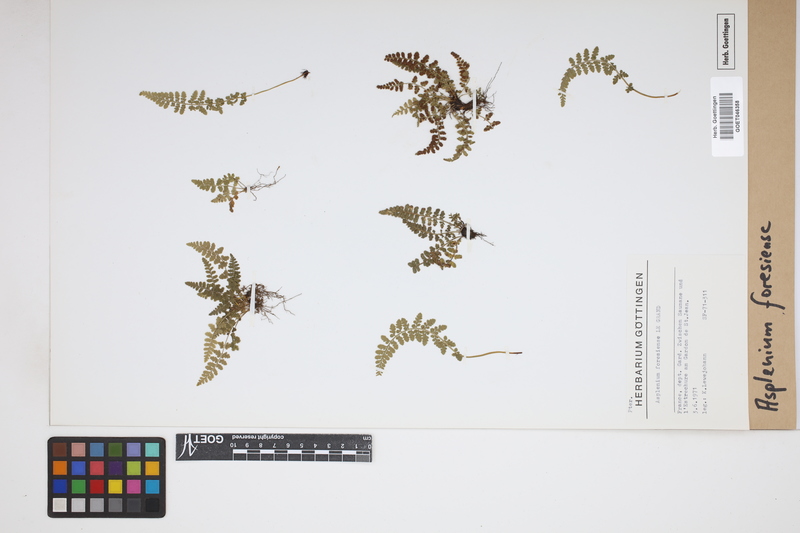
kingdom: Plantae
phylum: Tracheophyta
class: Polypodiopsida
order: Polypodiales
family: Aspleniaceae
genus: Asplenium
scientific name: Asplenium foresiense
